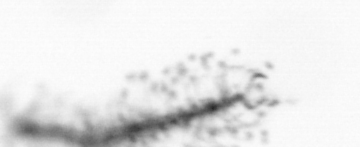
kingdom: Chromista
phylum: Ochrophyta
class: Bacillariophyceae
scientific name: Bacillariophyceae
